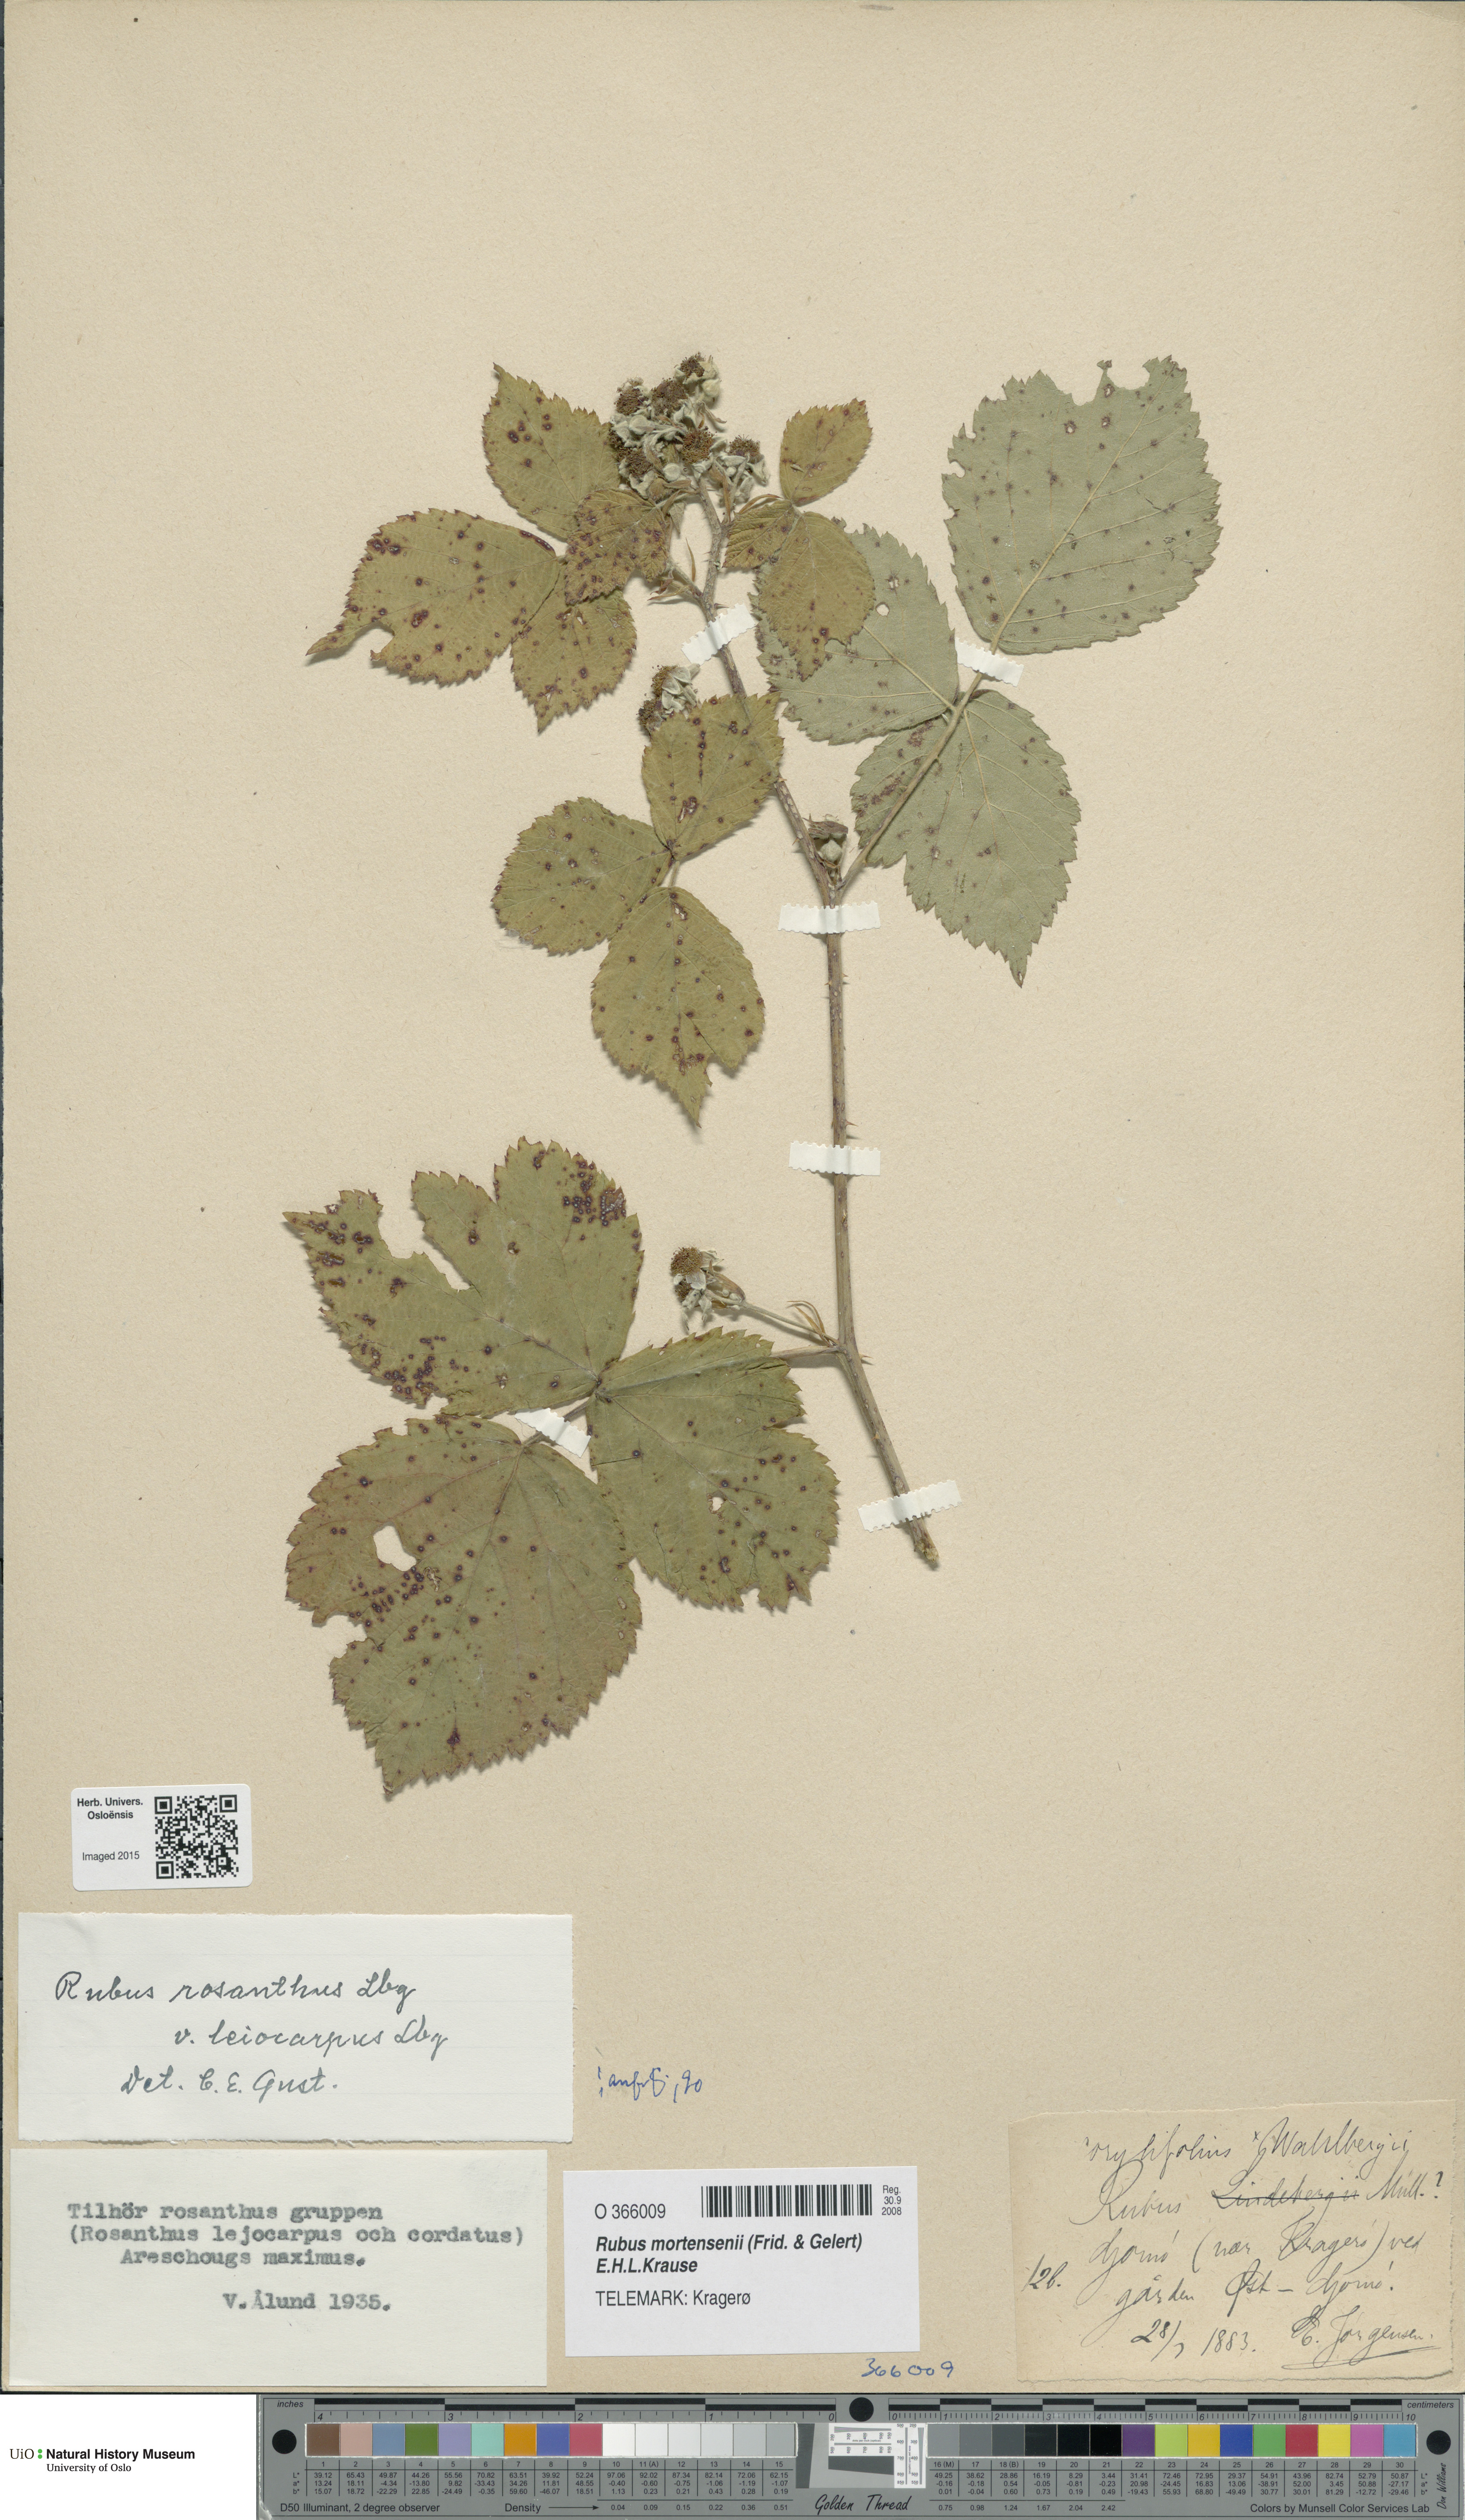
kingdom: Plantae
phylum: Tracheophyta
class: Magnoliopsida
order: Rosales
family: Rosaceae
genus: Rubus
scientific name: Rubus mortensenii
